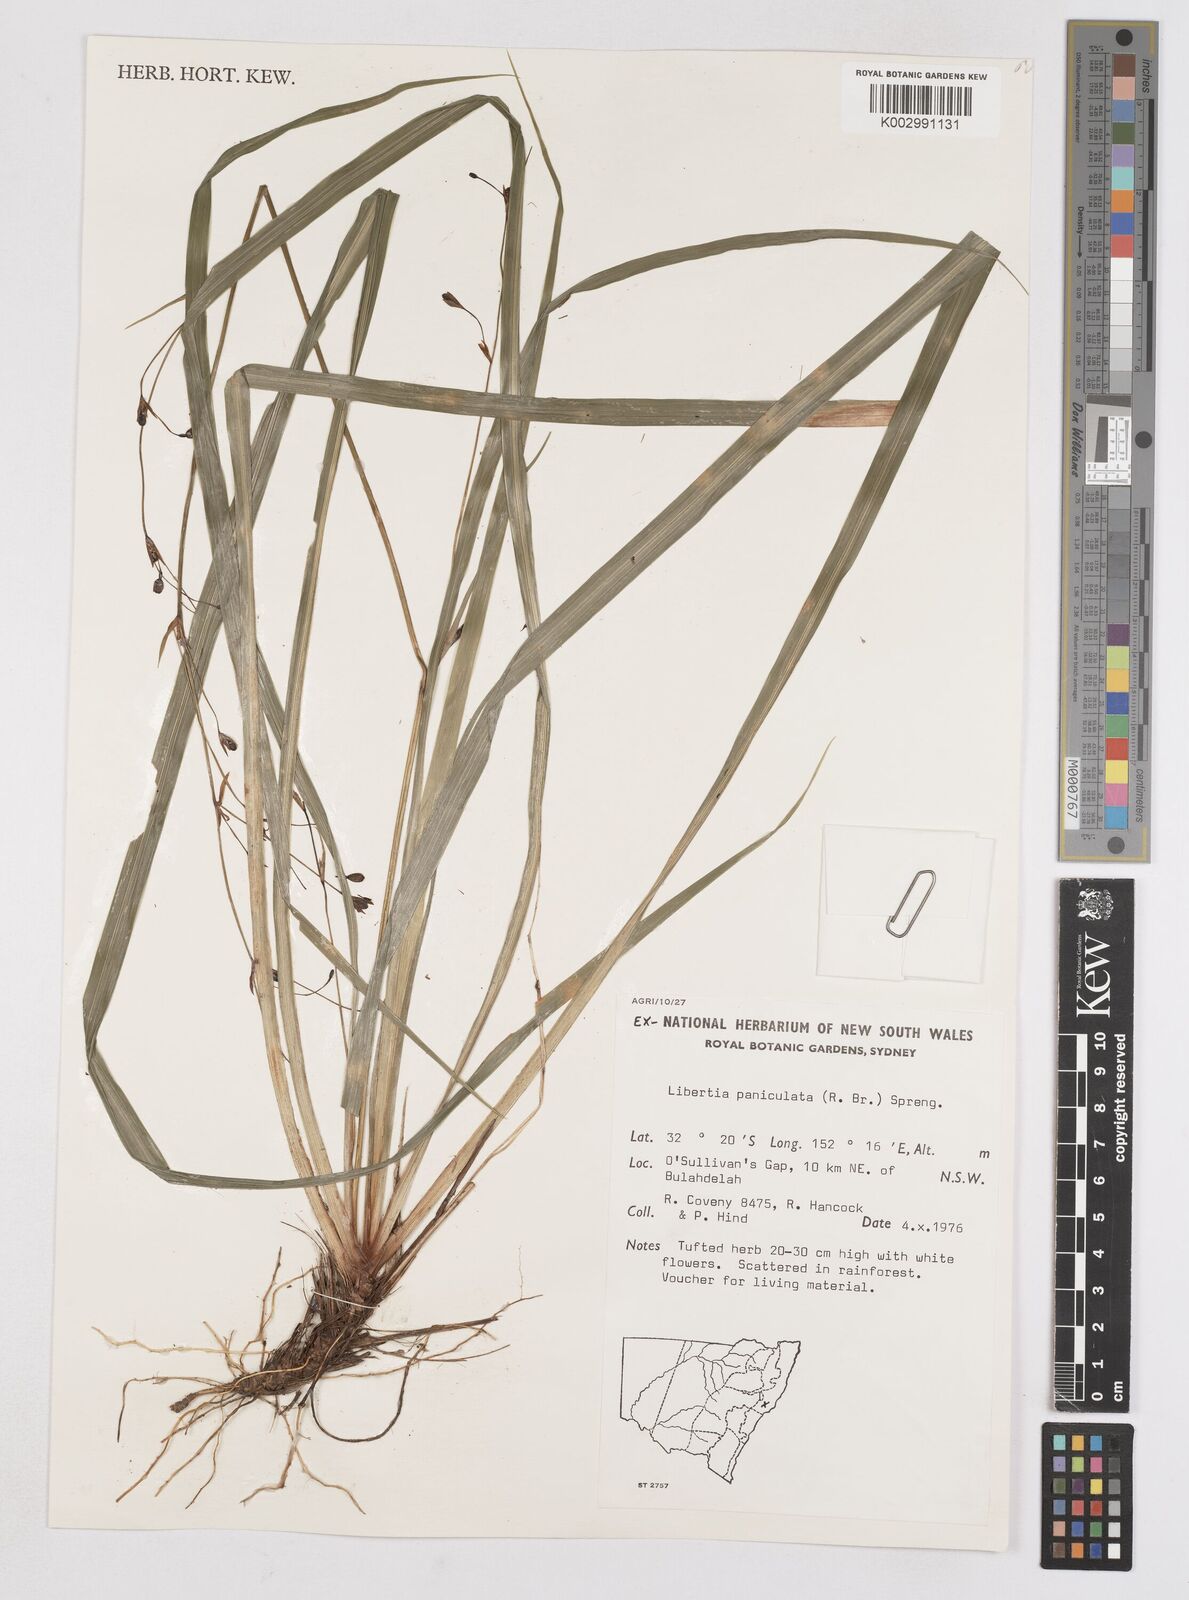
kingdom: Plantae
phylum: Tracheophyta
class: Liliopsida
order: Asparagales
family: Iridaceae
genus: Libertia
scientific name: Libertia paniculata
